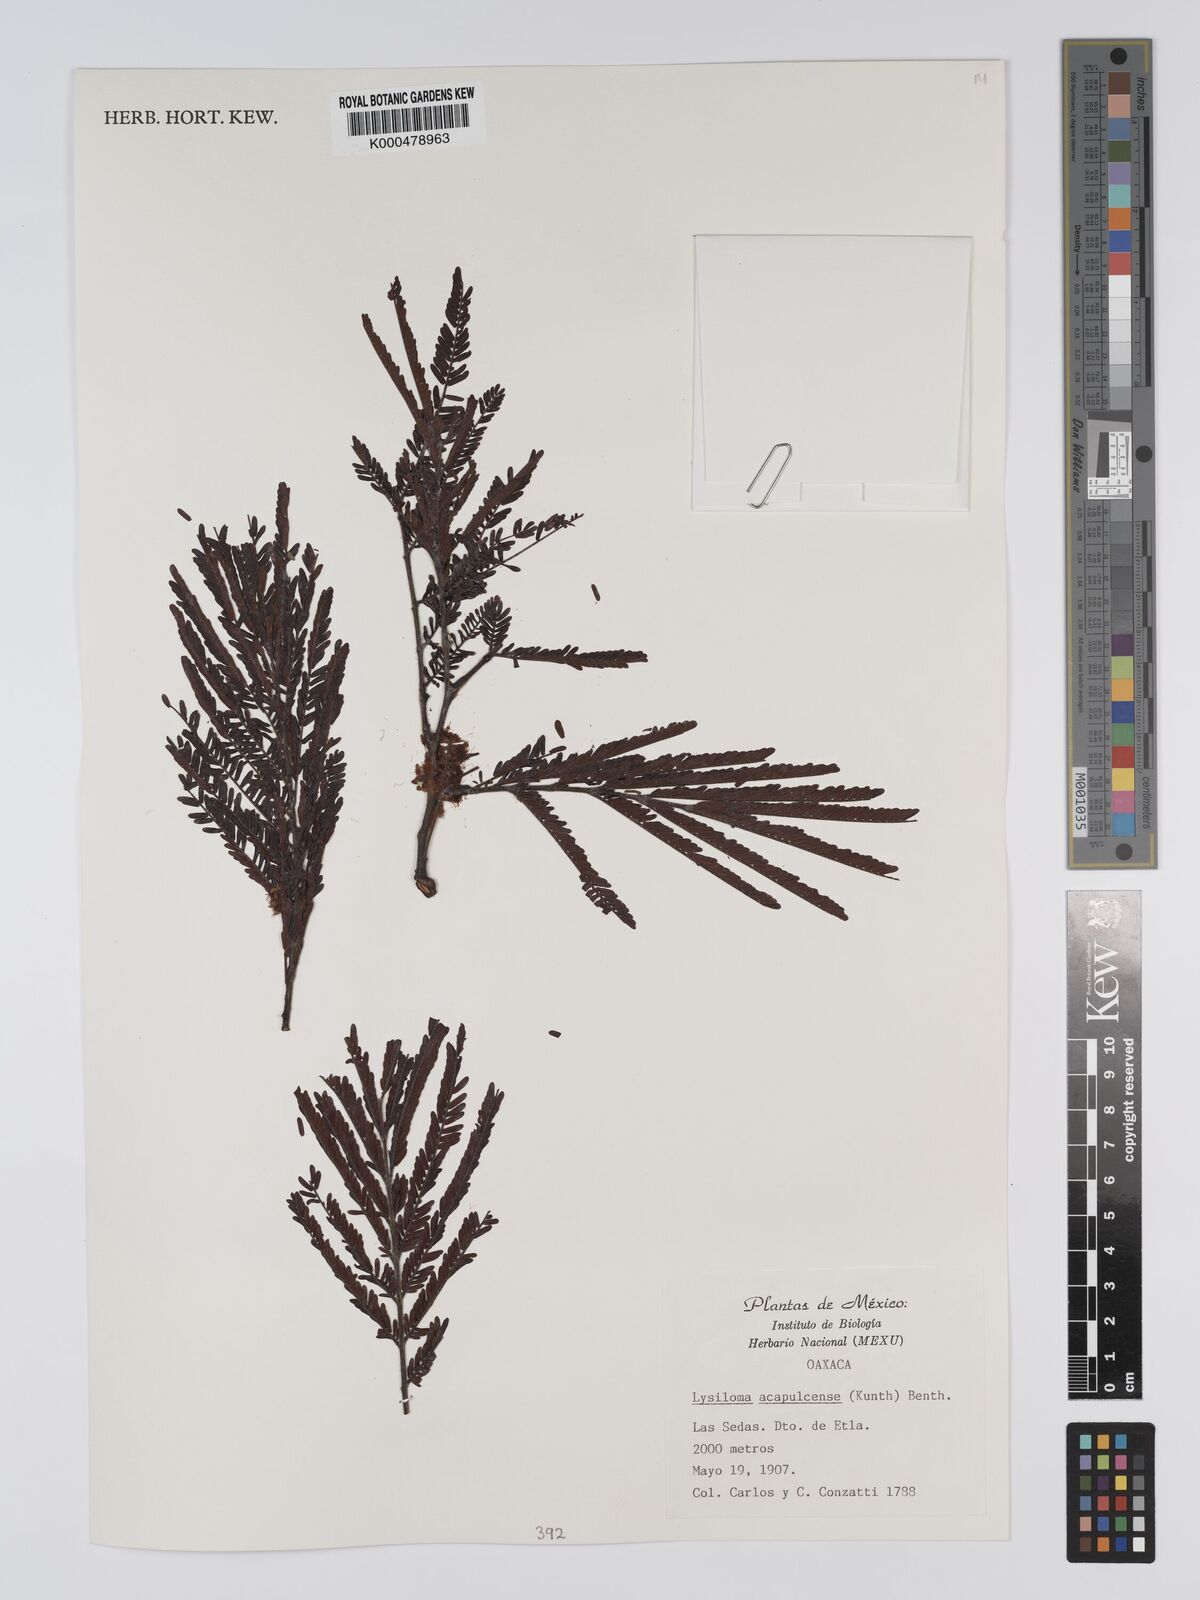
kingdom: Plantae
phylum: Tracheophyta
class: Magnoliopsida
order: Fabales
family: Fabaceae
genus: Lysiloma
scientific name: Lysiloma
